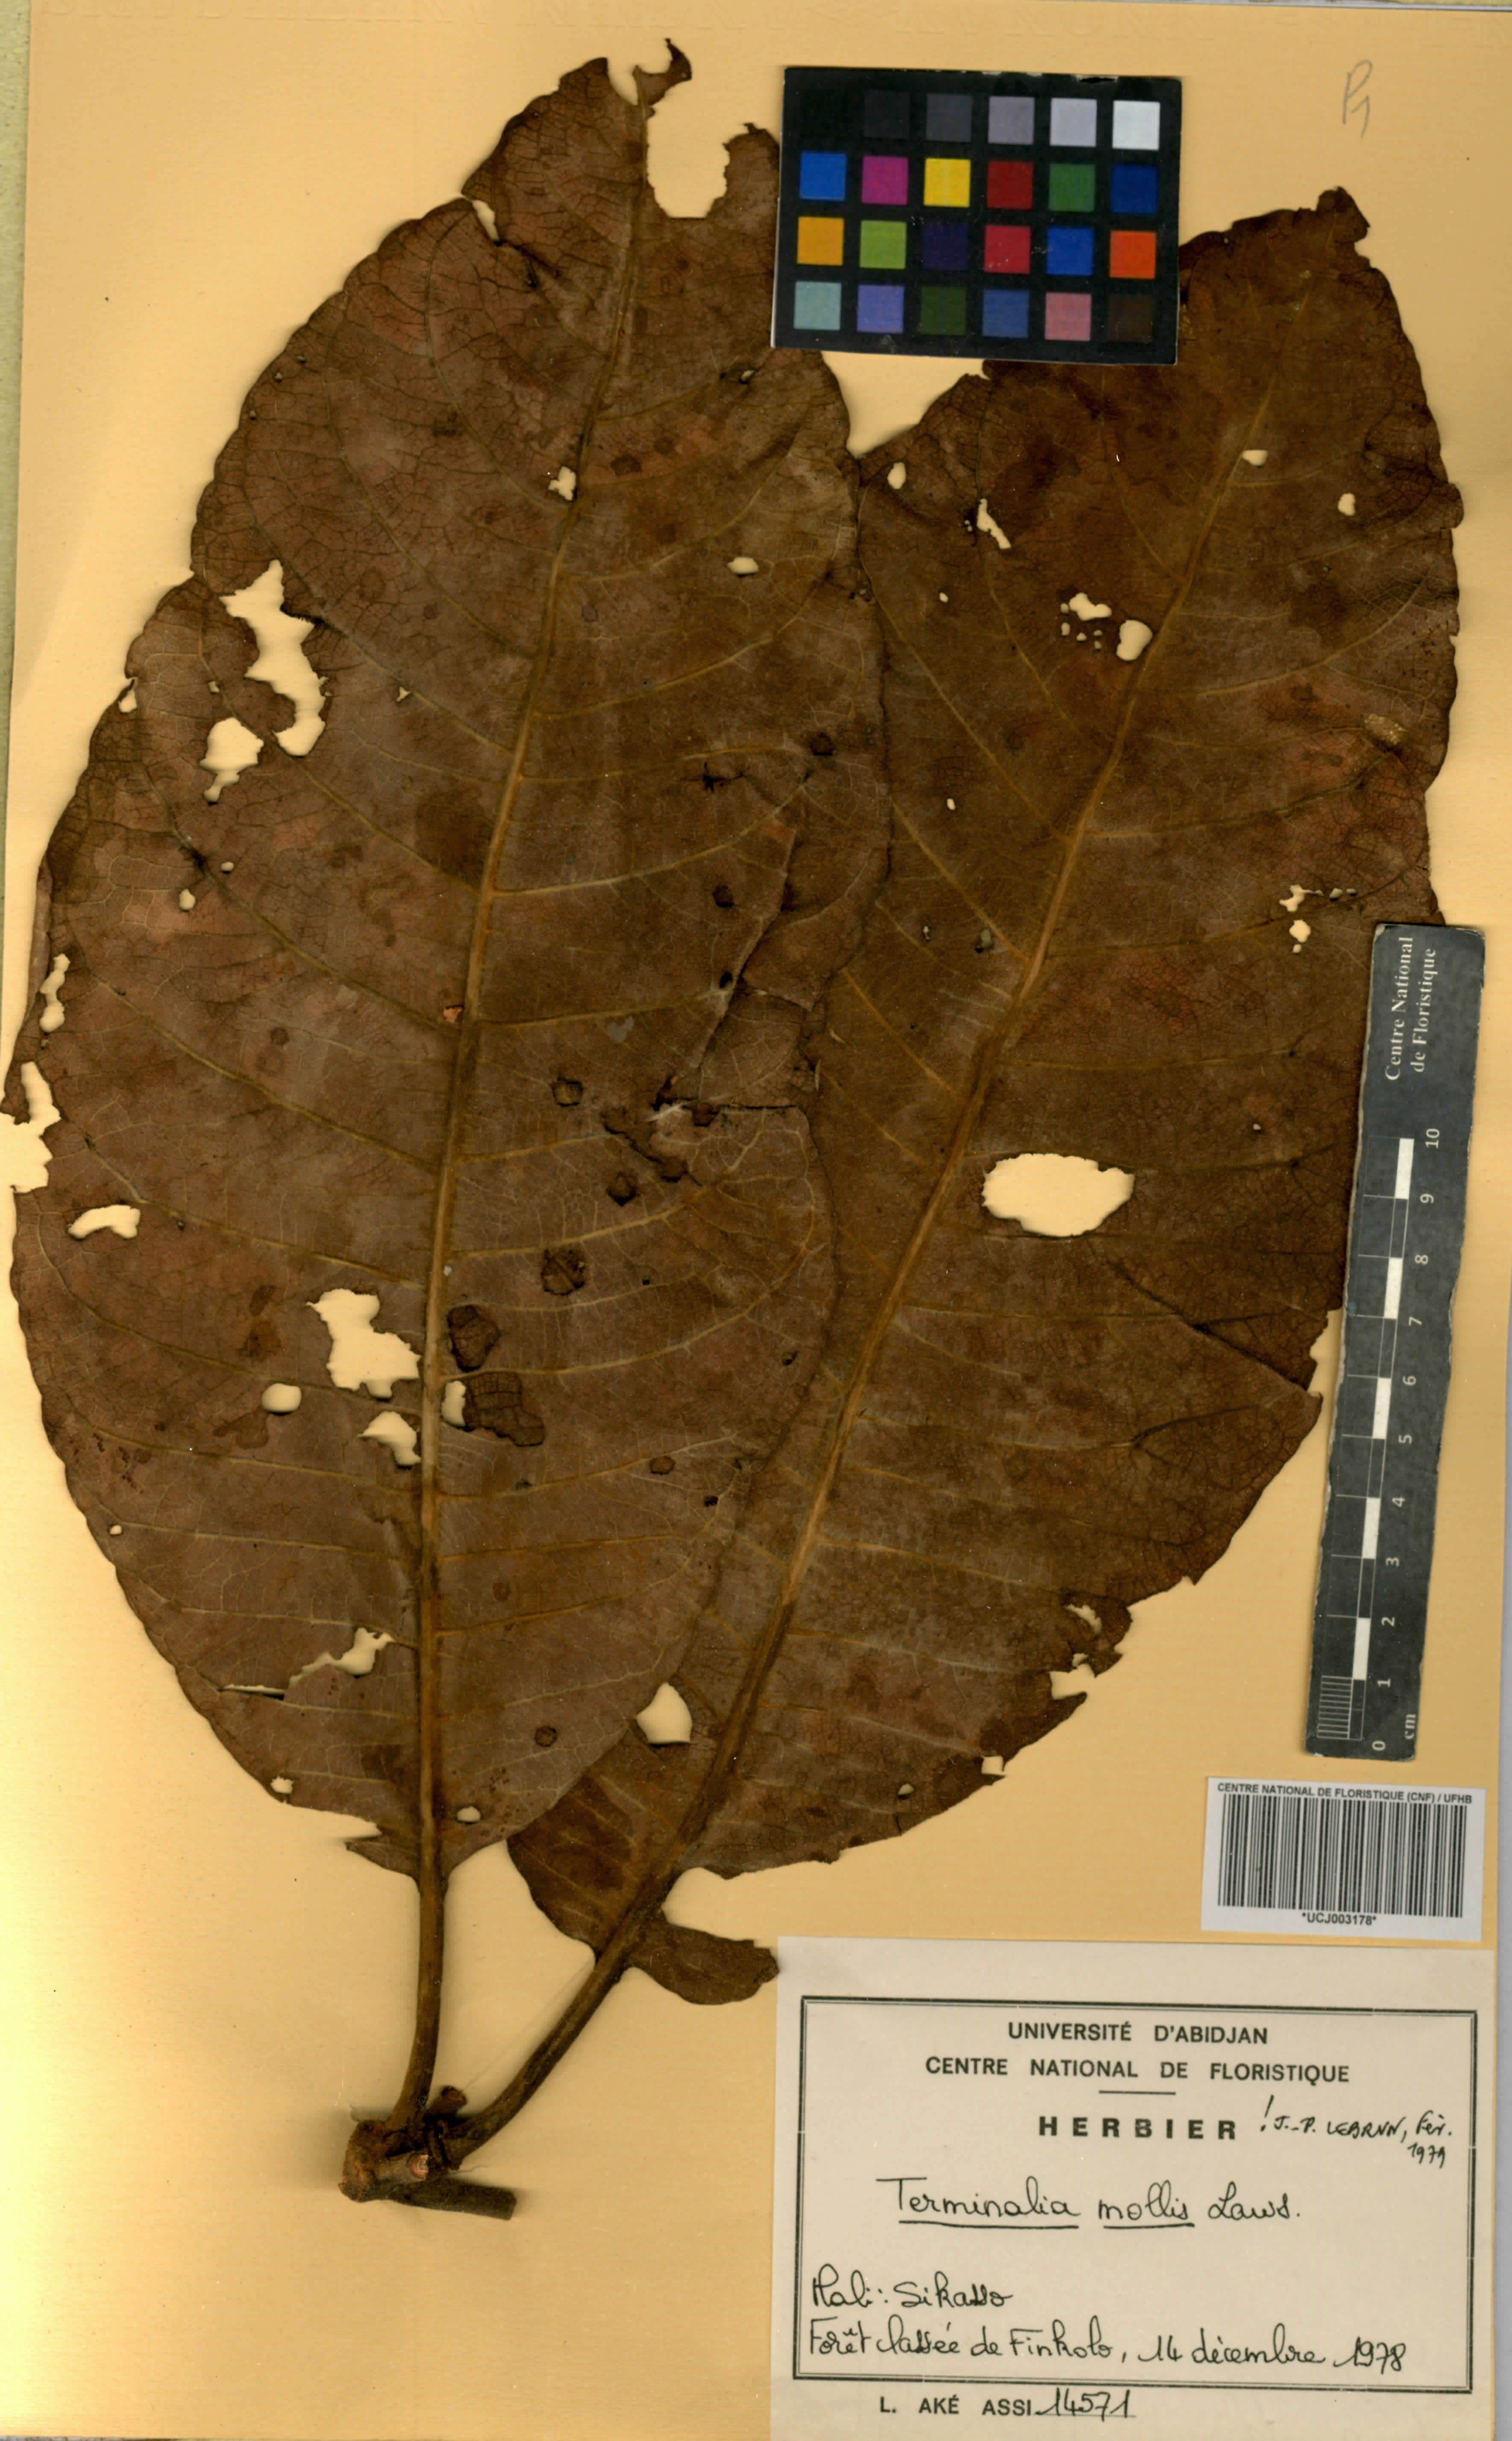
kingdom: Plantae
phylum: Tracheophyta
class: Magnoliopsida
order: Myrtales
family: Combretaceae
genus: Terminalia
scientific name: Terminalia mollis
